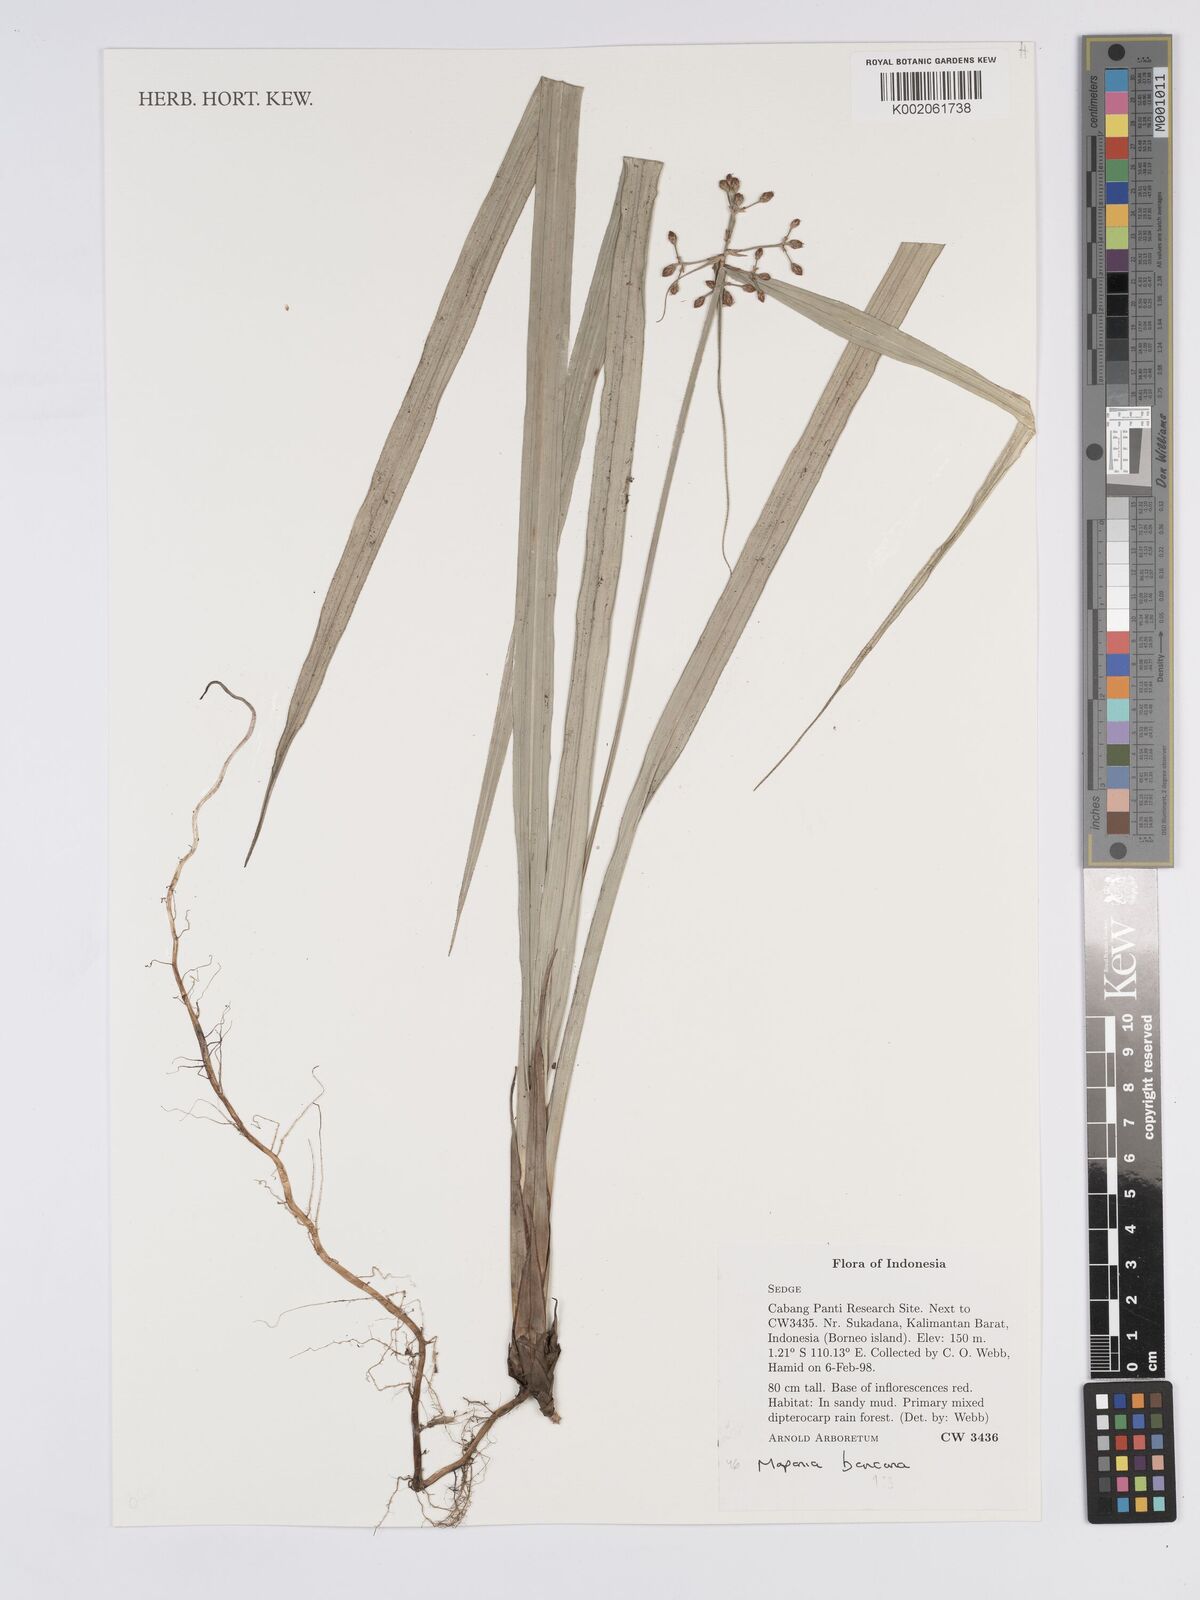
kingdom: Plantae
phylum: Tracheophyta
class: Liliopsida
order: Poales
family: Cyperaceae
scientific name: Cyperaceae
